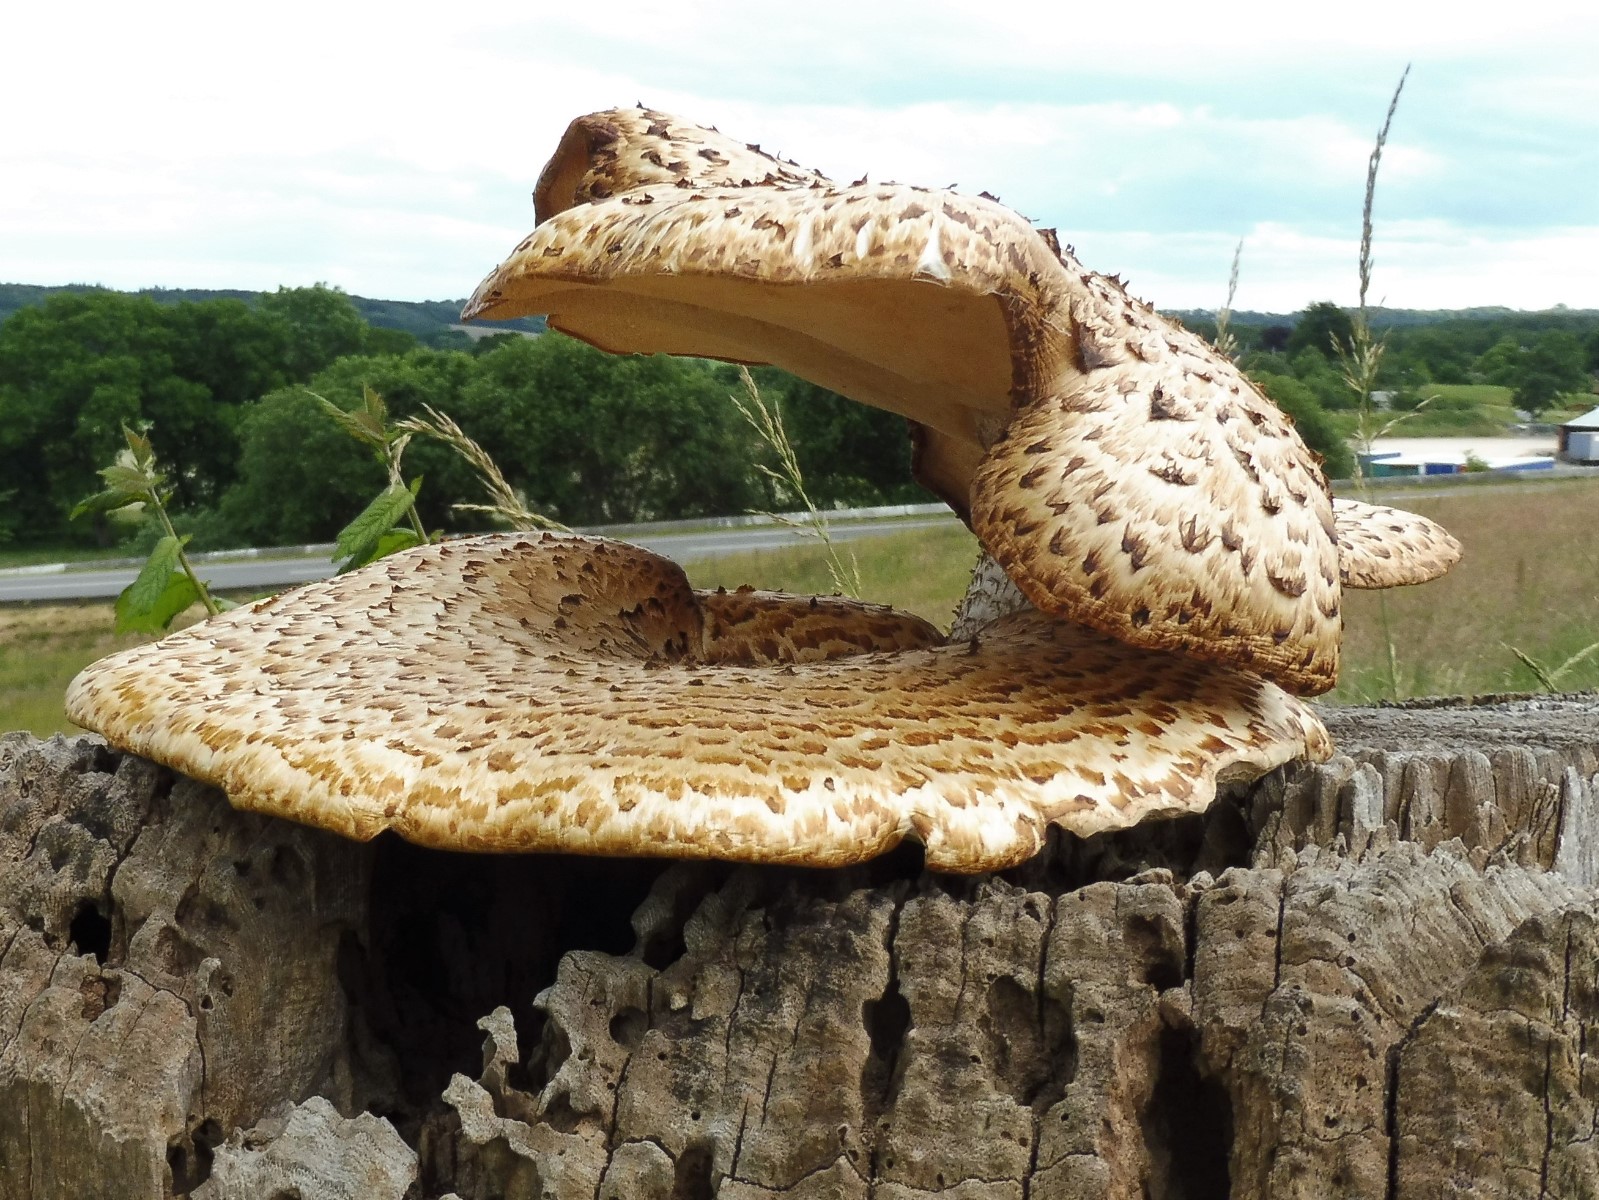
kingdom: Fungi
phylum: Basidiomycota
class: Agaricomycetes
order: Polyporales
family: Polyporaceae
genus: Cerioporus
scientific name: Cerioporus squamosus
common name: skællet stilkporesvamp
